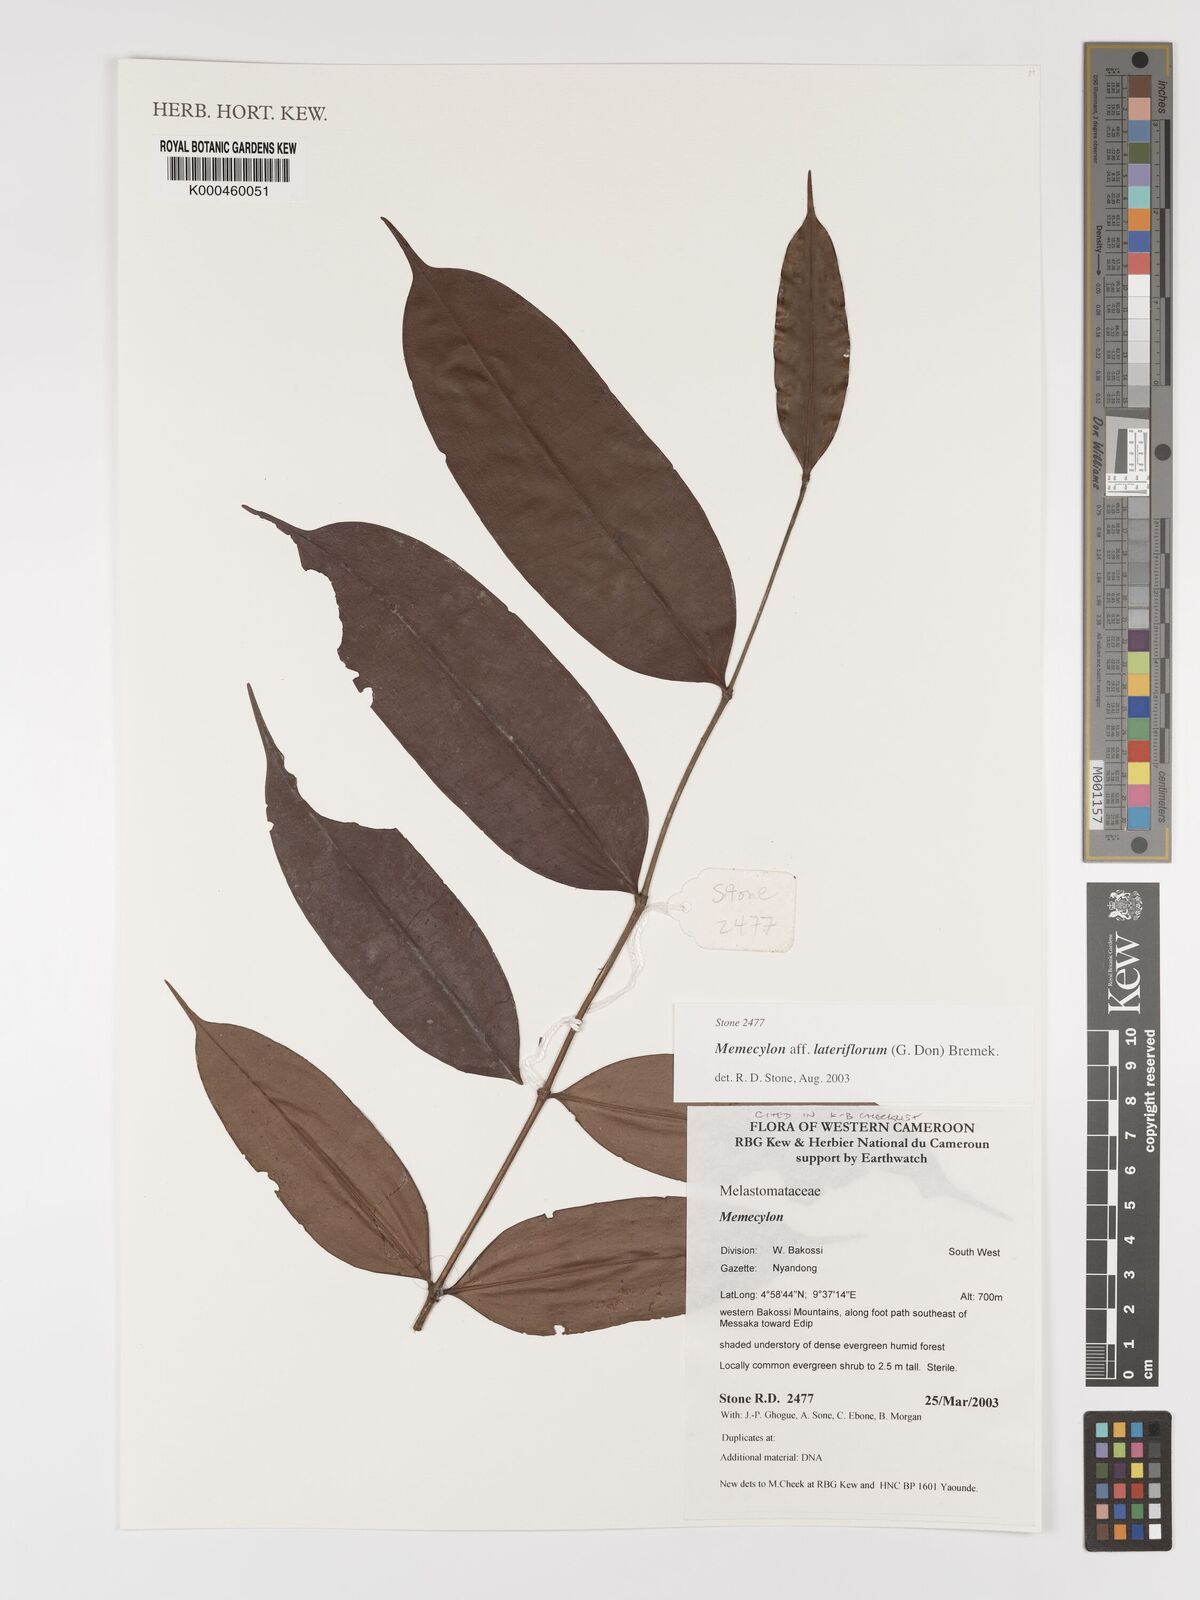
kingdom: Plantae
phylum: Tracheophyta
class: Magnoliopsida
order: Myrtales
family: Melastomataceae
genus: Memecylon
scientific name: Memecylon lateriflorum
